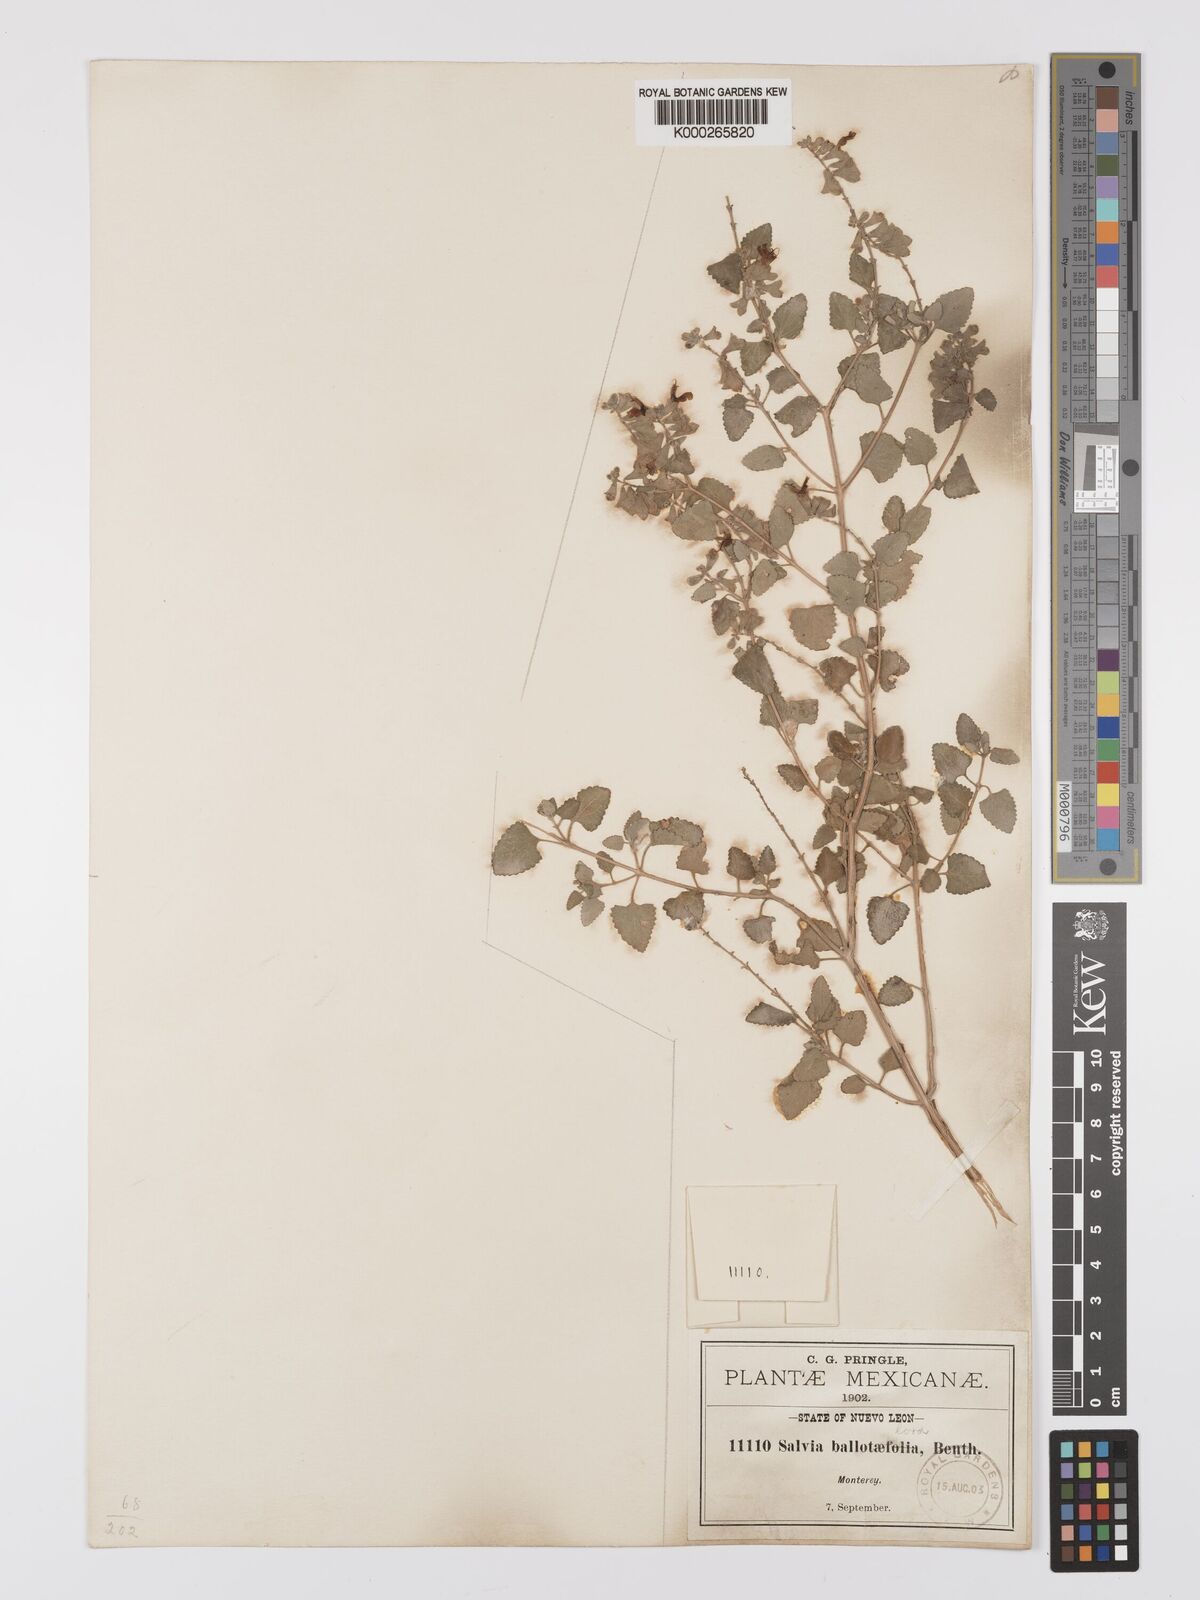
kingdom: Plantae
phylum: Tracheophyta
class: Magnoliopsida
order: Lamiales
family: Lamiaceae
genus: Salvia
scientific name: Salvia ballotiflora
